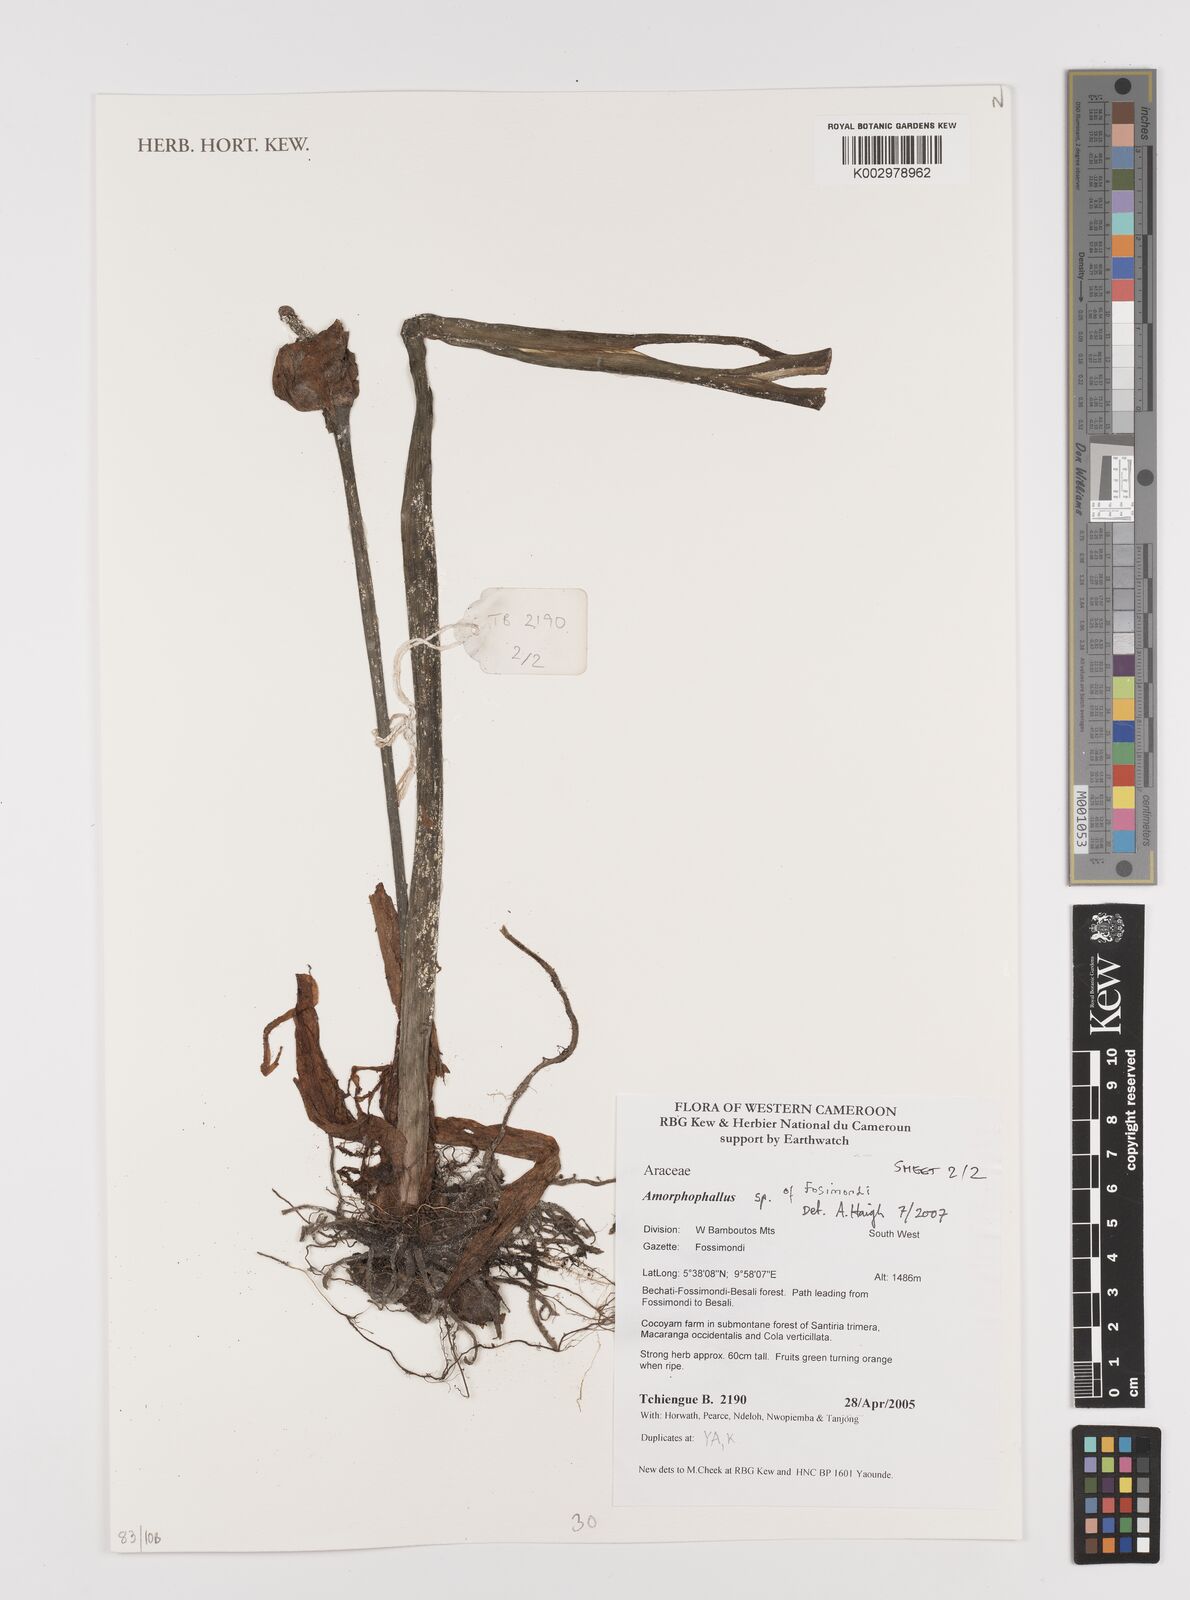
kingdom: Plantae
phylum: Tracheophyta
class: Liliopsida
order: Alismatales
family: Araceae
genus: Amorphophallus
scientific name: Amorphophallus
